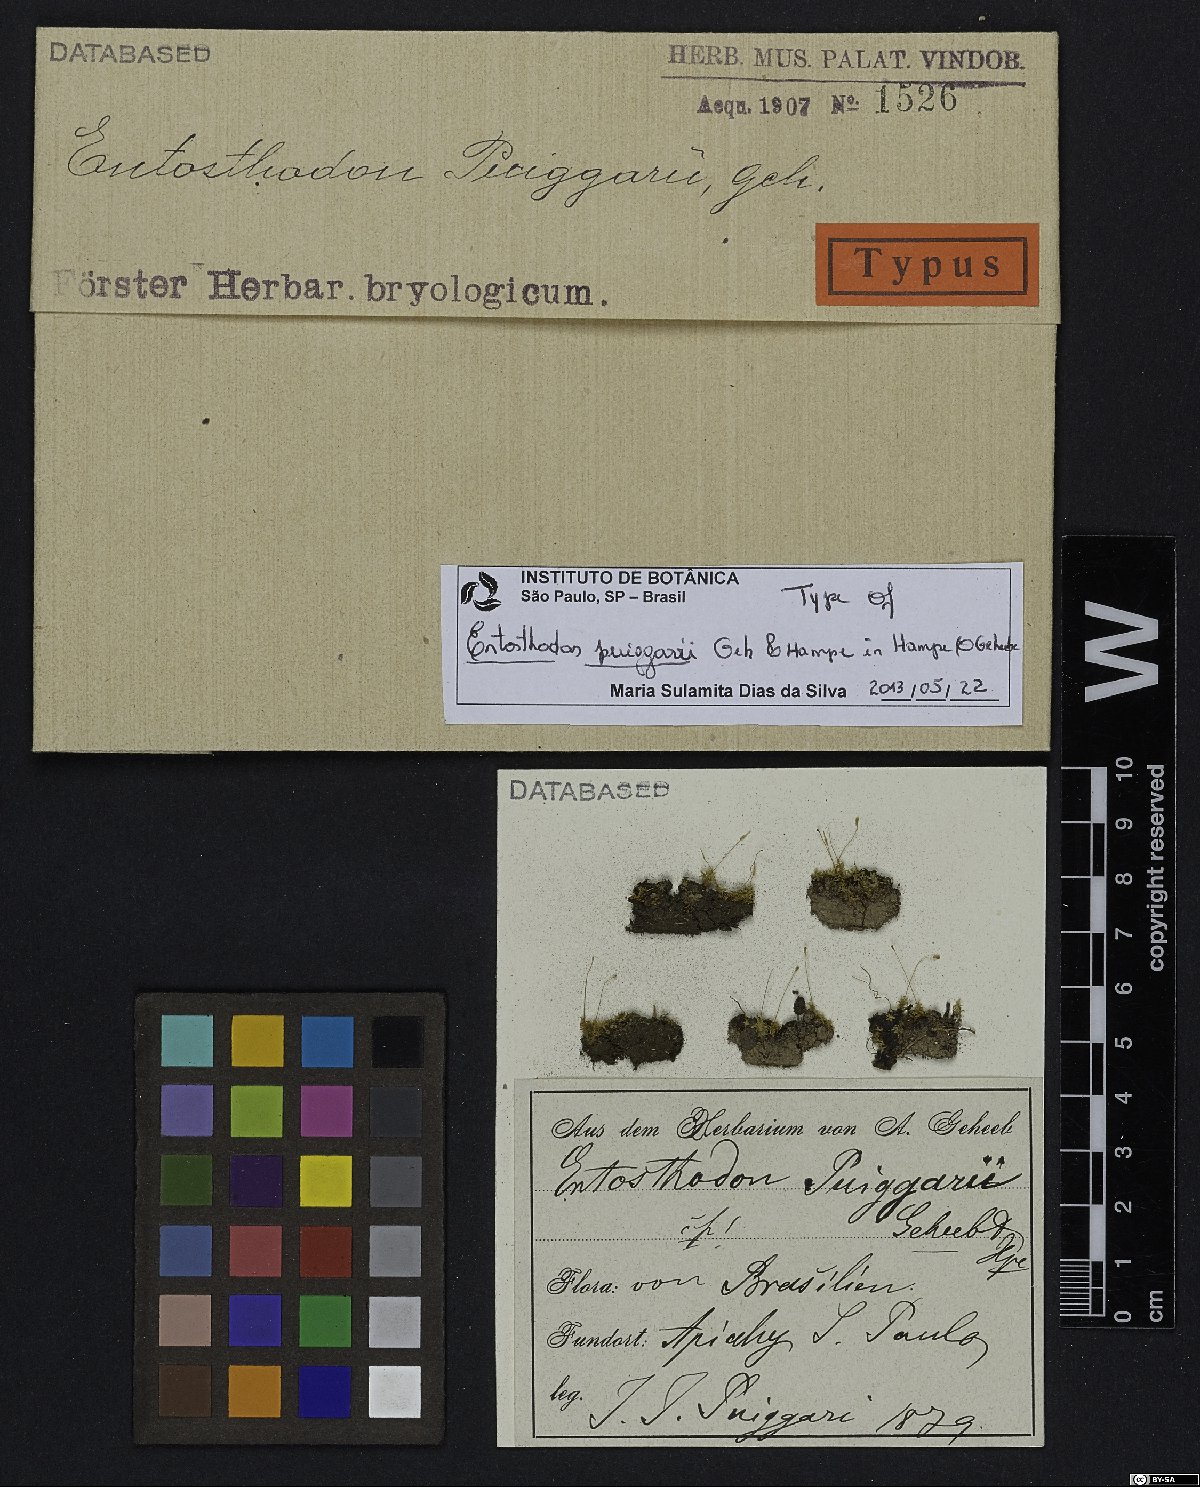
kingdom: Plantae
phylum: Bryophyta
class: Bryopsida
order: Funariales
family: Funariaceae
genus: Entosthodon
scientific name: Entosthodon puiggarii
